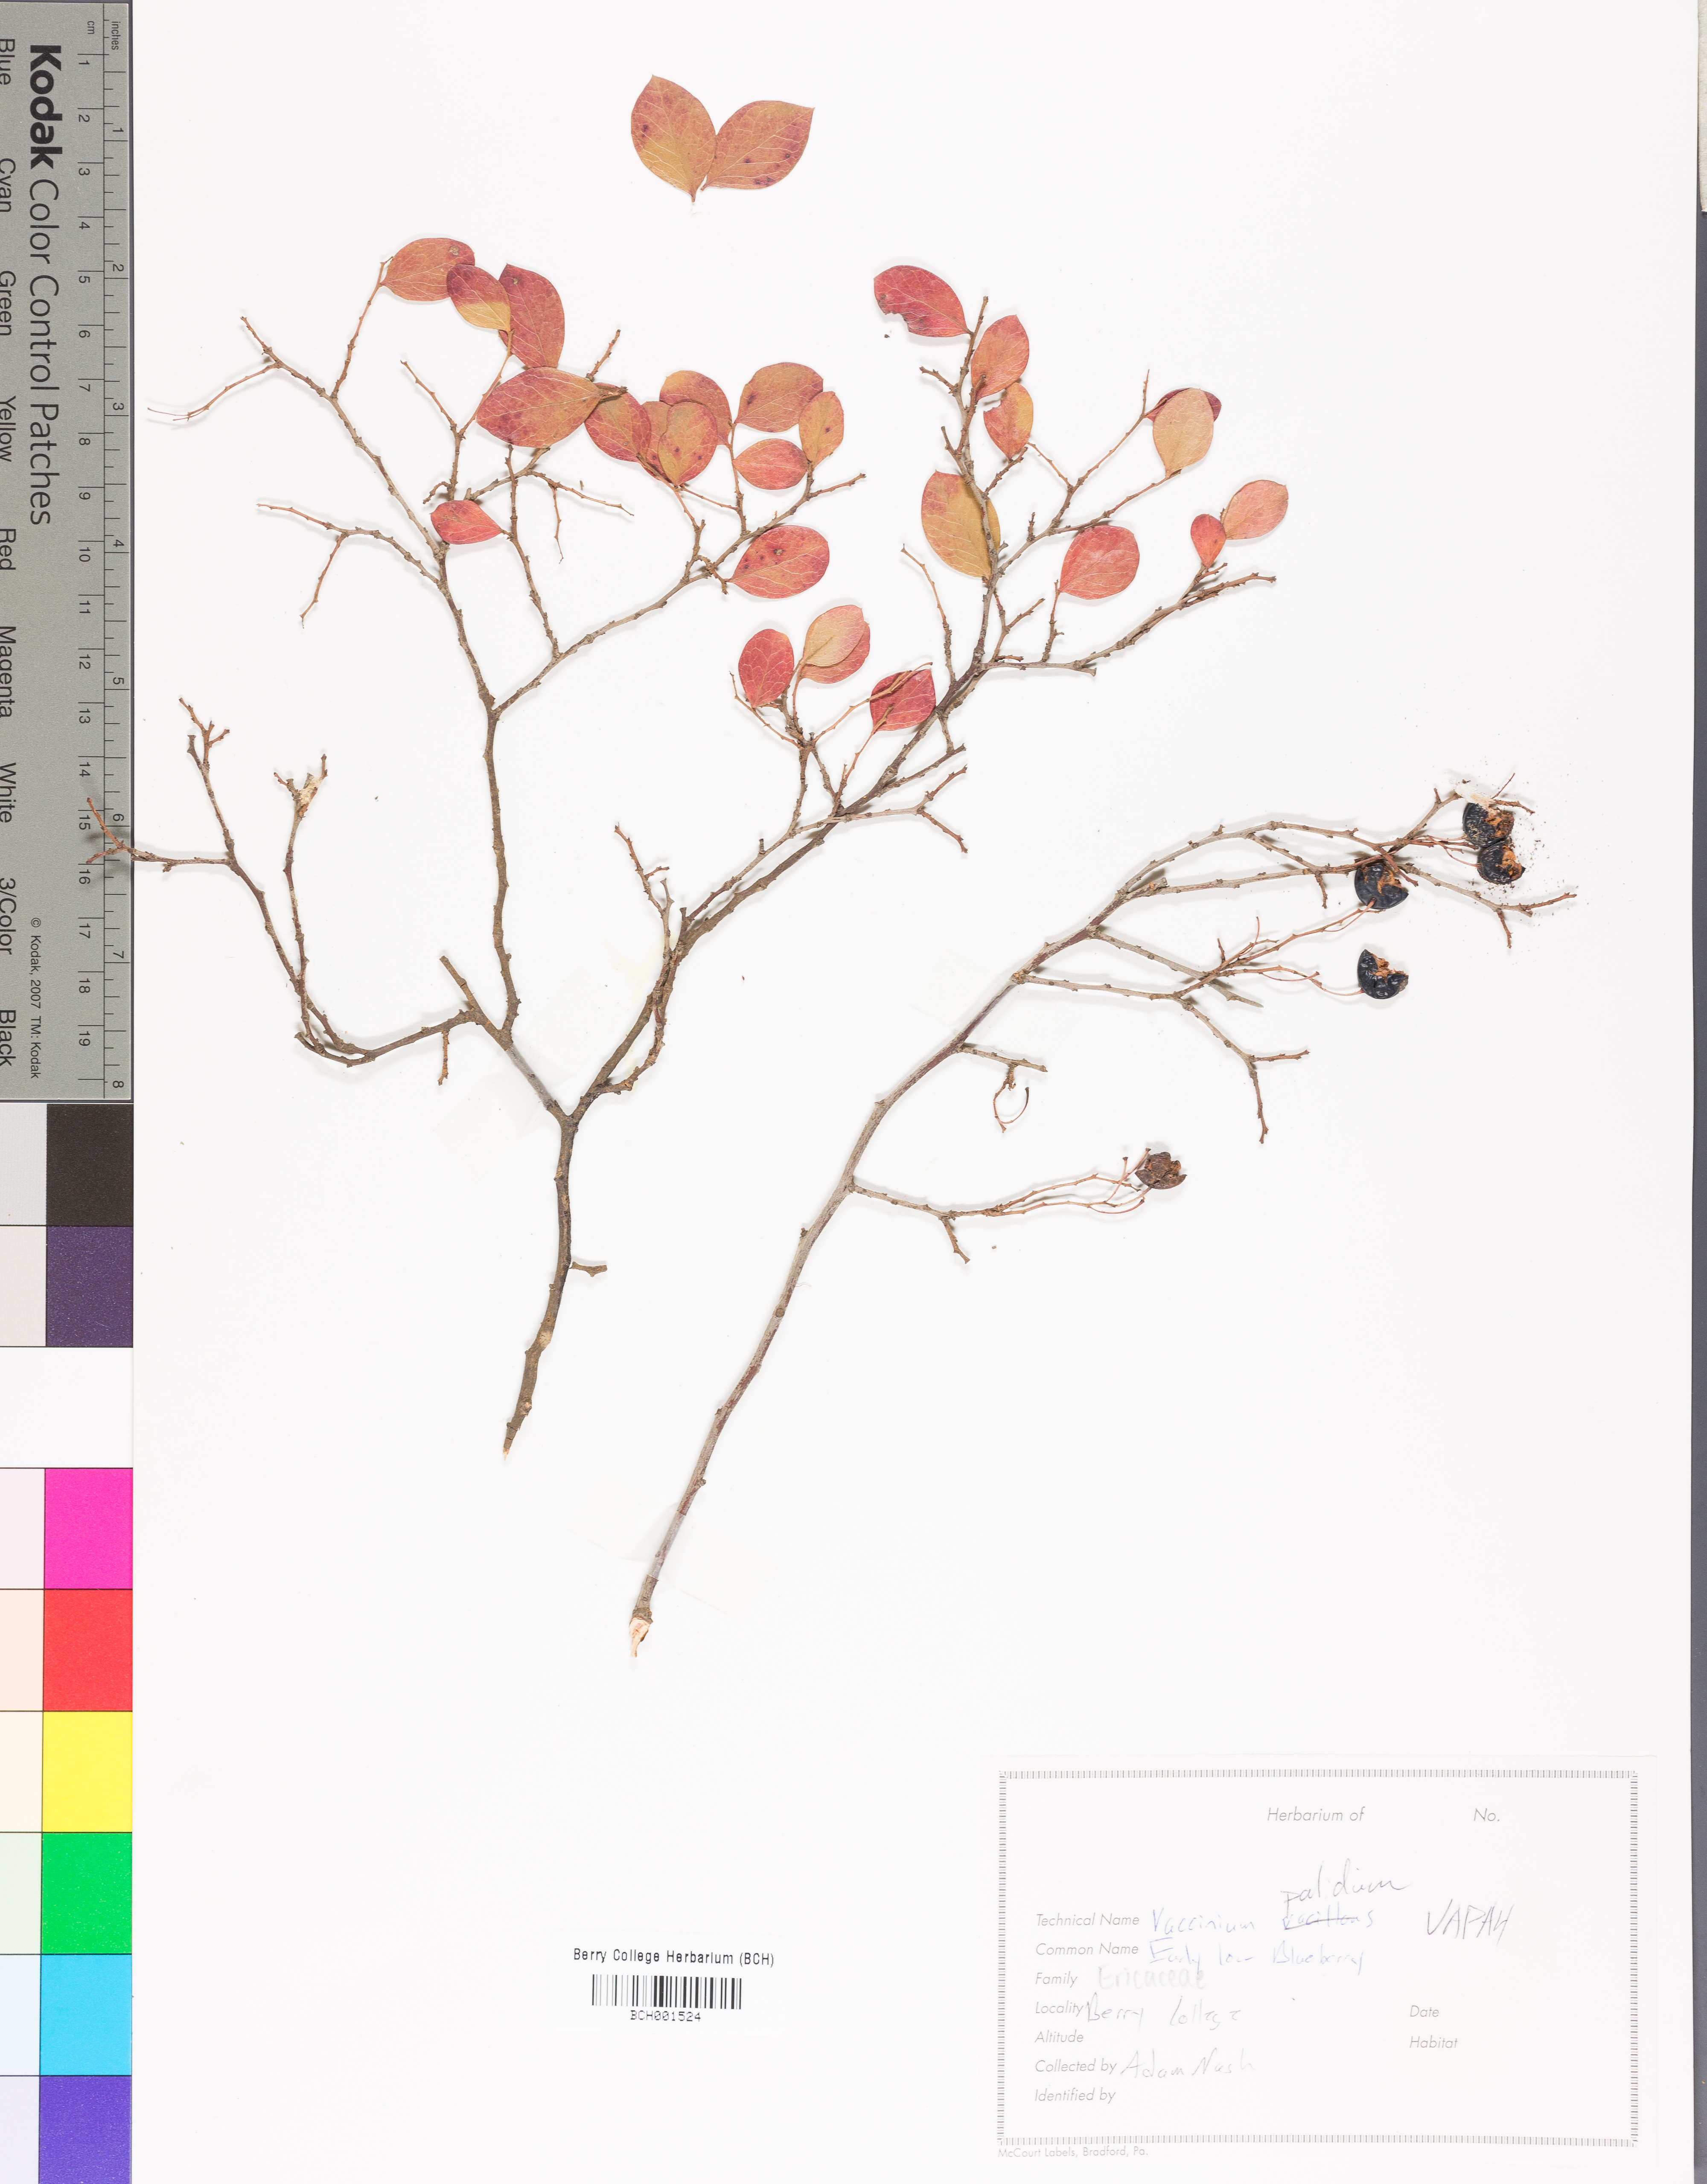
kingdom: Plantae
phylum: Tracheophyta
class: Magnoliopsida
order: Ericales
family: Ericaceae
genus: Vaccinium
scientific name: Vaccinium pallidum
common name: Blue ridge blueberry
